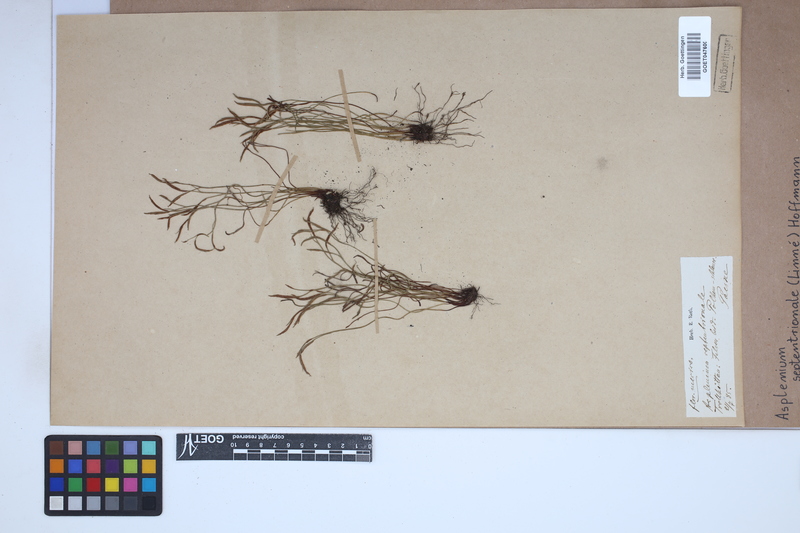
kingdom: Plantae
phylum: Tracheophyta
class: Polypodiopsida
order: Polypodiales
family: Aspleniaceae
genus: Asplenium
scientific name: Asplenium septentrionale
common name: Forked spleenwort
